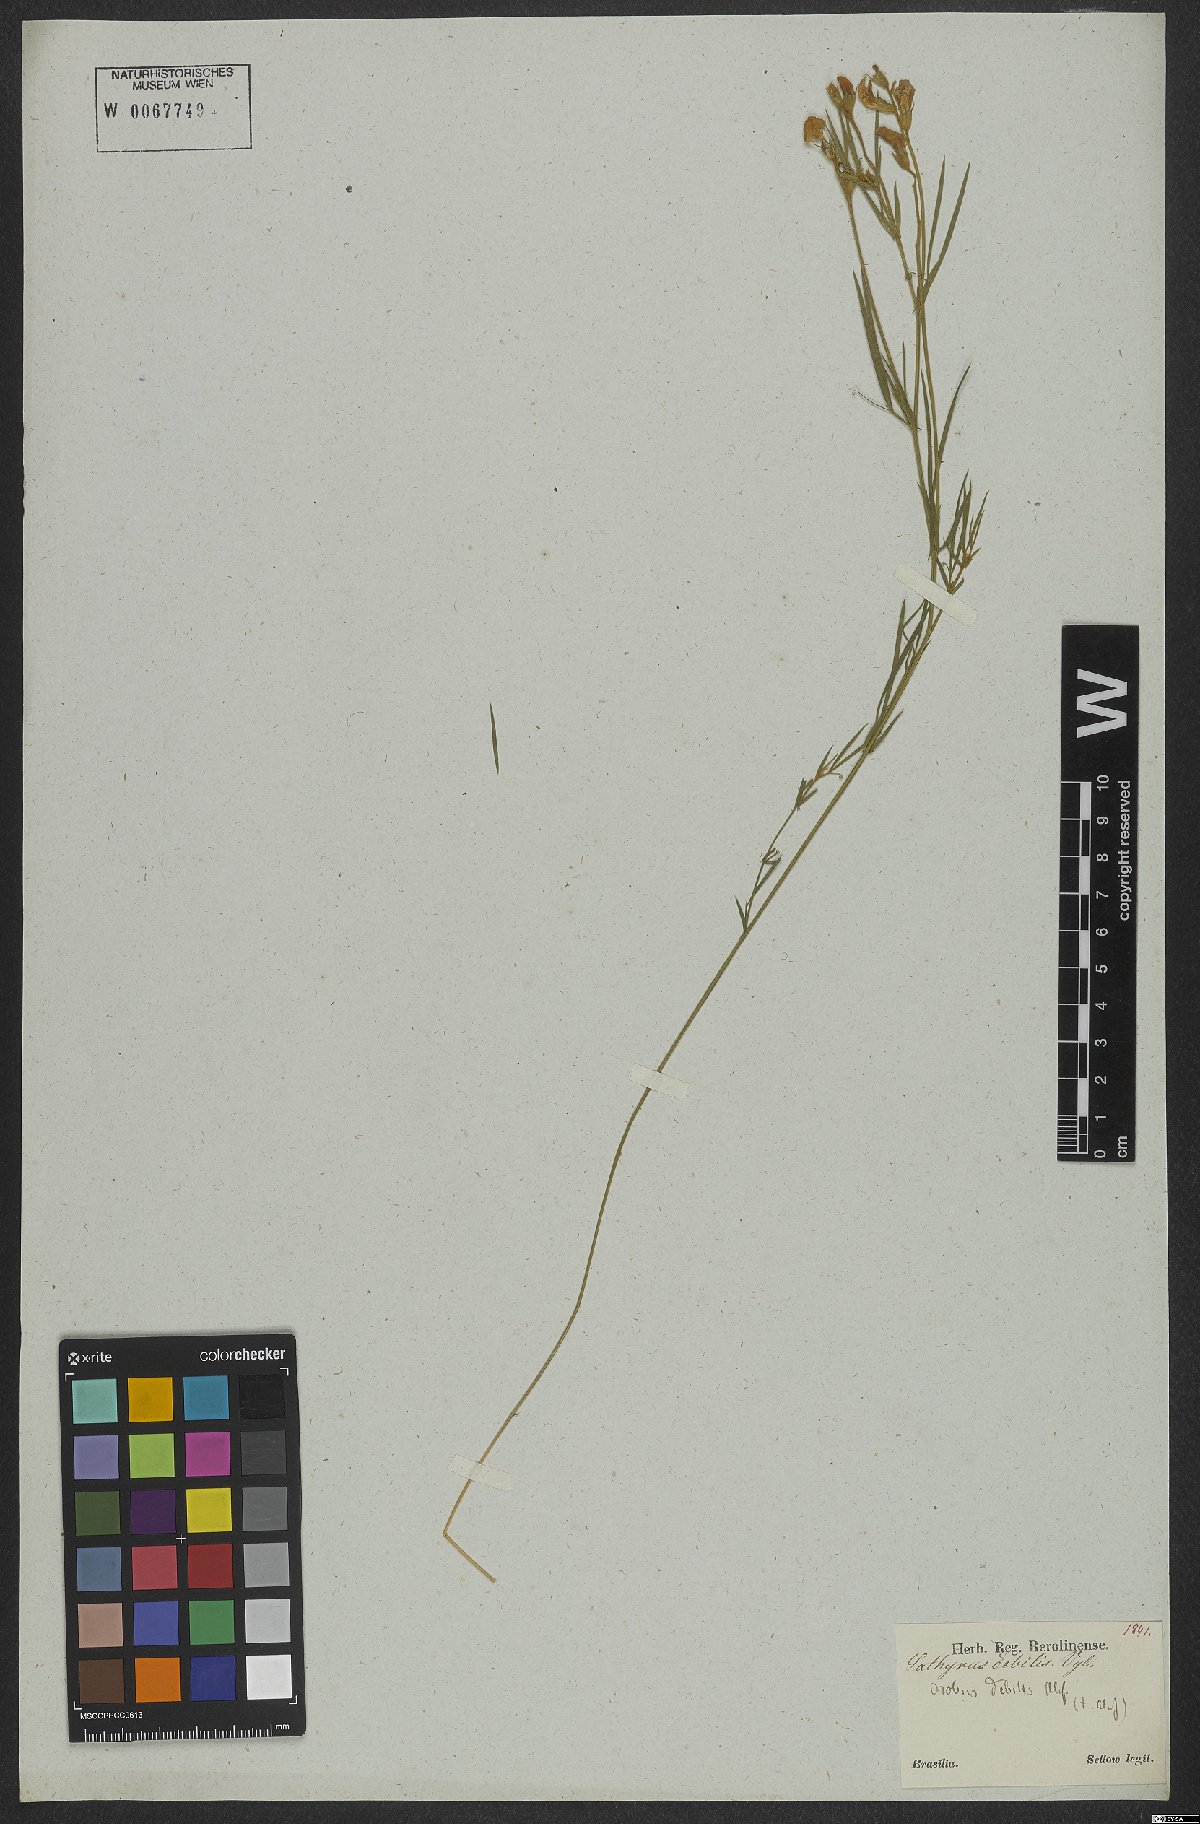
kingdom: Plantae
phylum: Tracheophyta
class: Magnoliopsida
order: Fabales
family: Fabaceae
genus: Lathyrus
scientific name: Lathyrus subulatus
